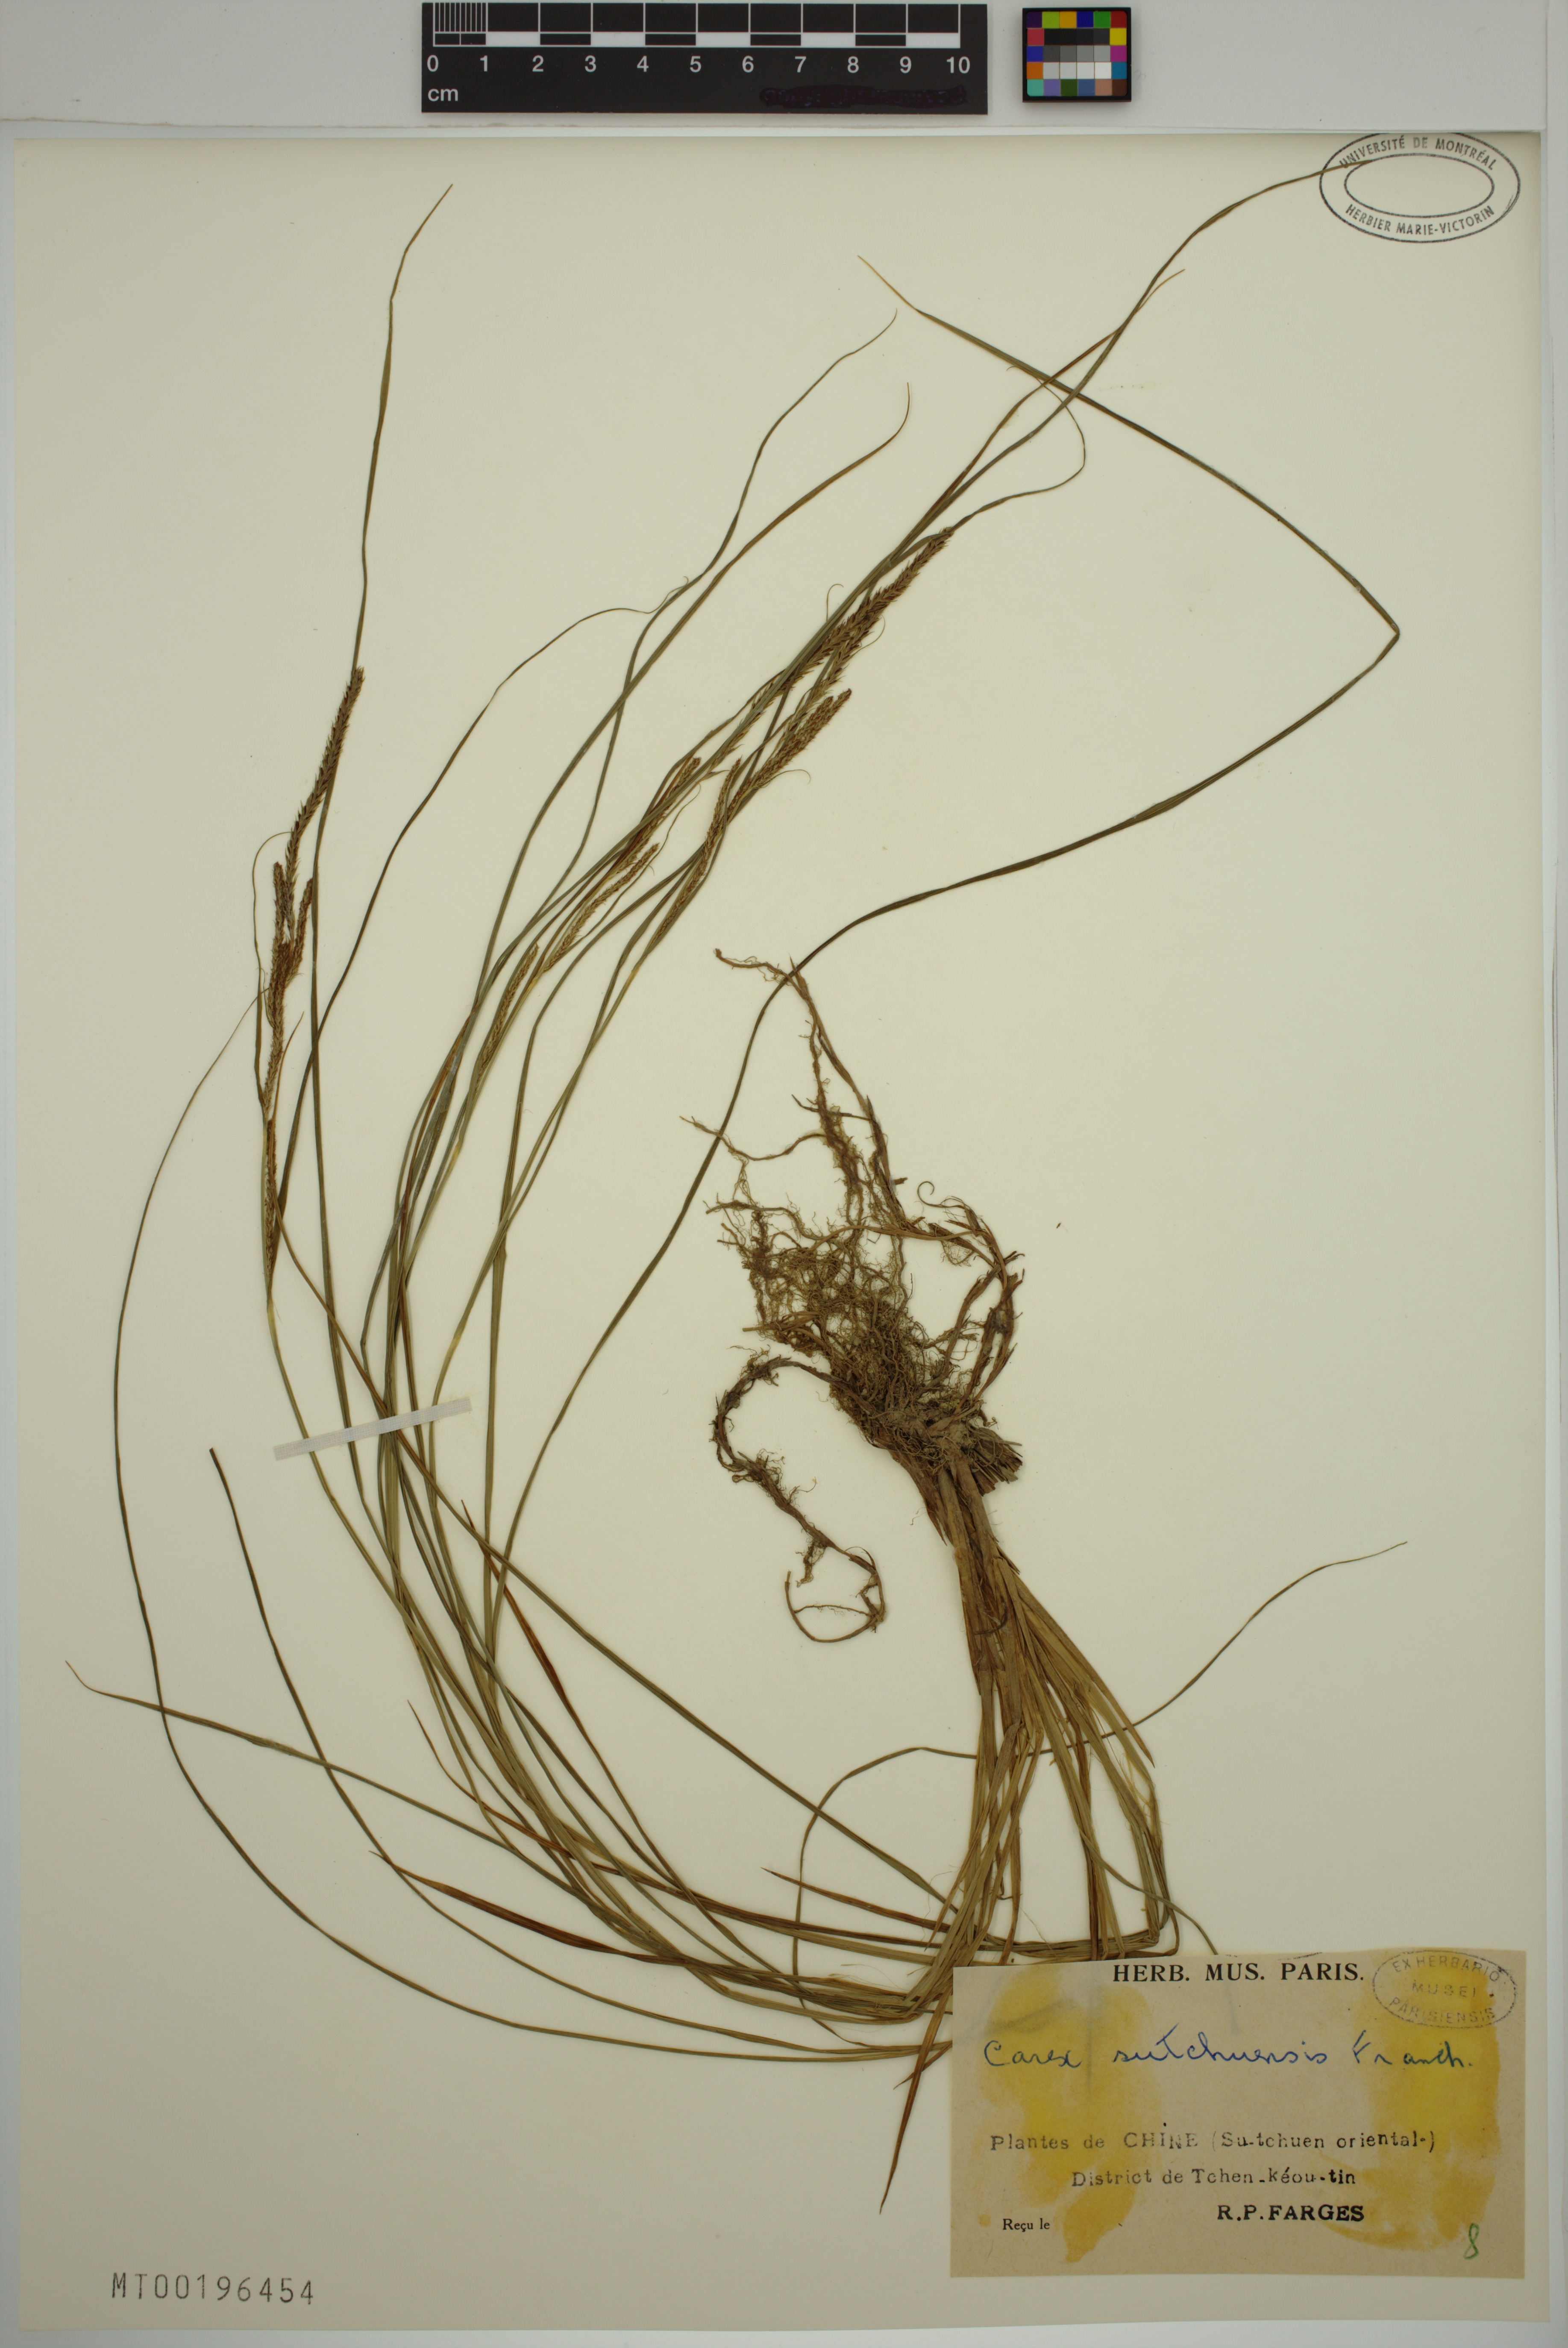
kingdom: Plantae
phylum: Tracheophyta
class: Liliopsida
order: Poales
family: Cyperaceae
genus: Carex
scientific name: Carex sutchuensis
